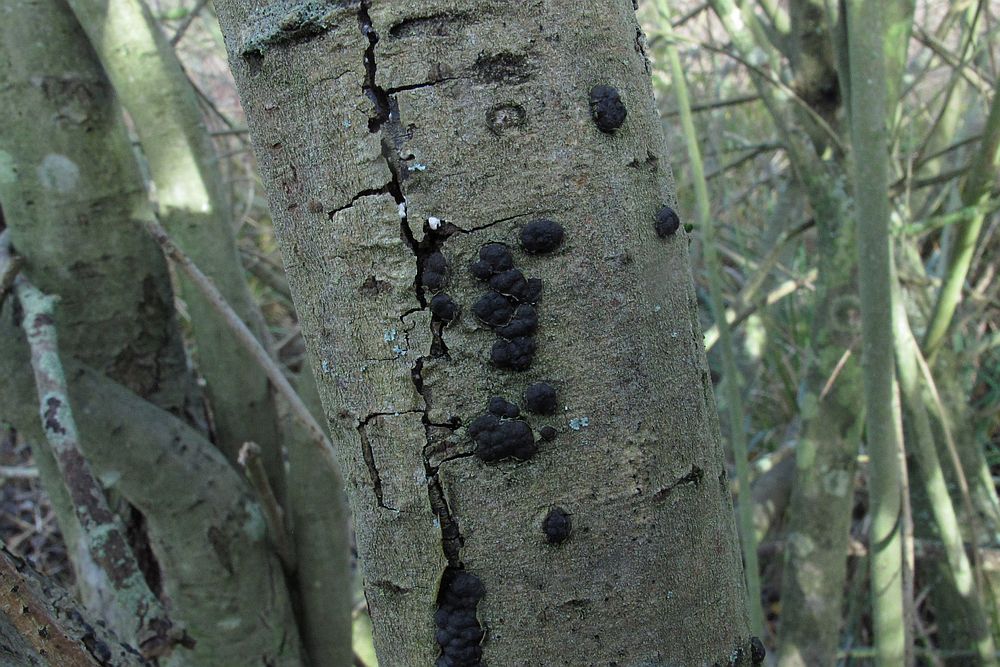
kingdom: Fungi
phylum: Ascomycota
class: Sordariomycetes
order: Xylariales
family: Xylariaceae
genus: Entoleuca
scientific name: Entoleuca mammata
